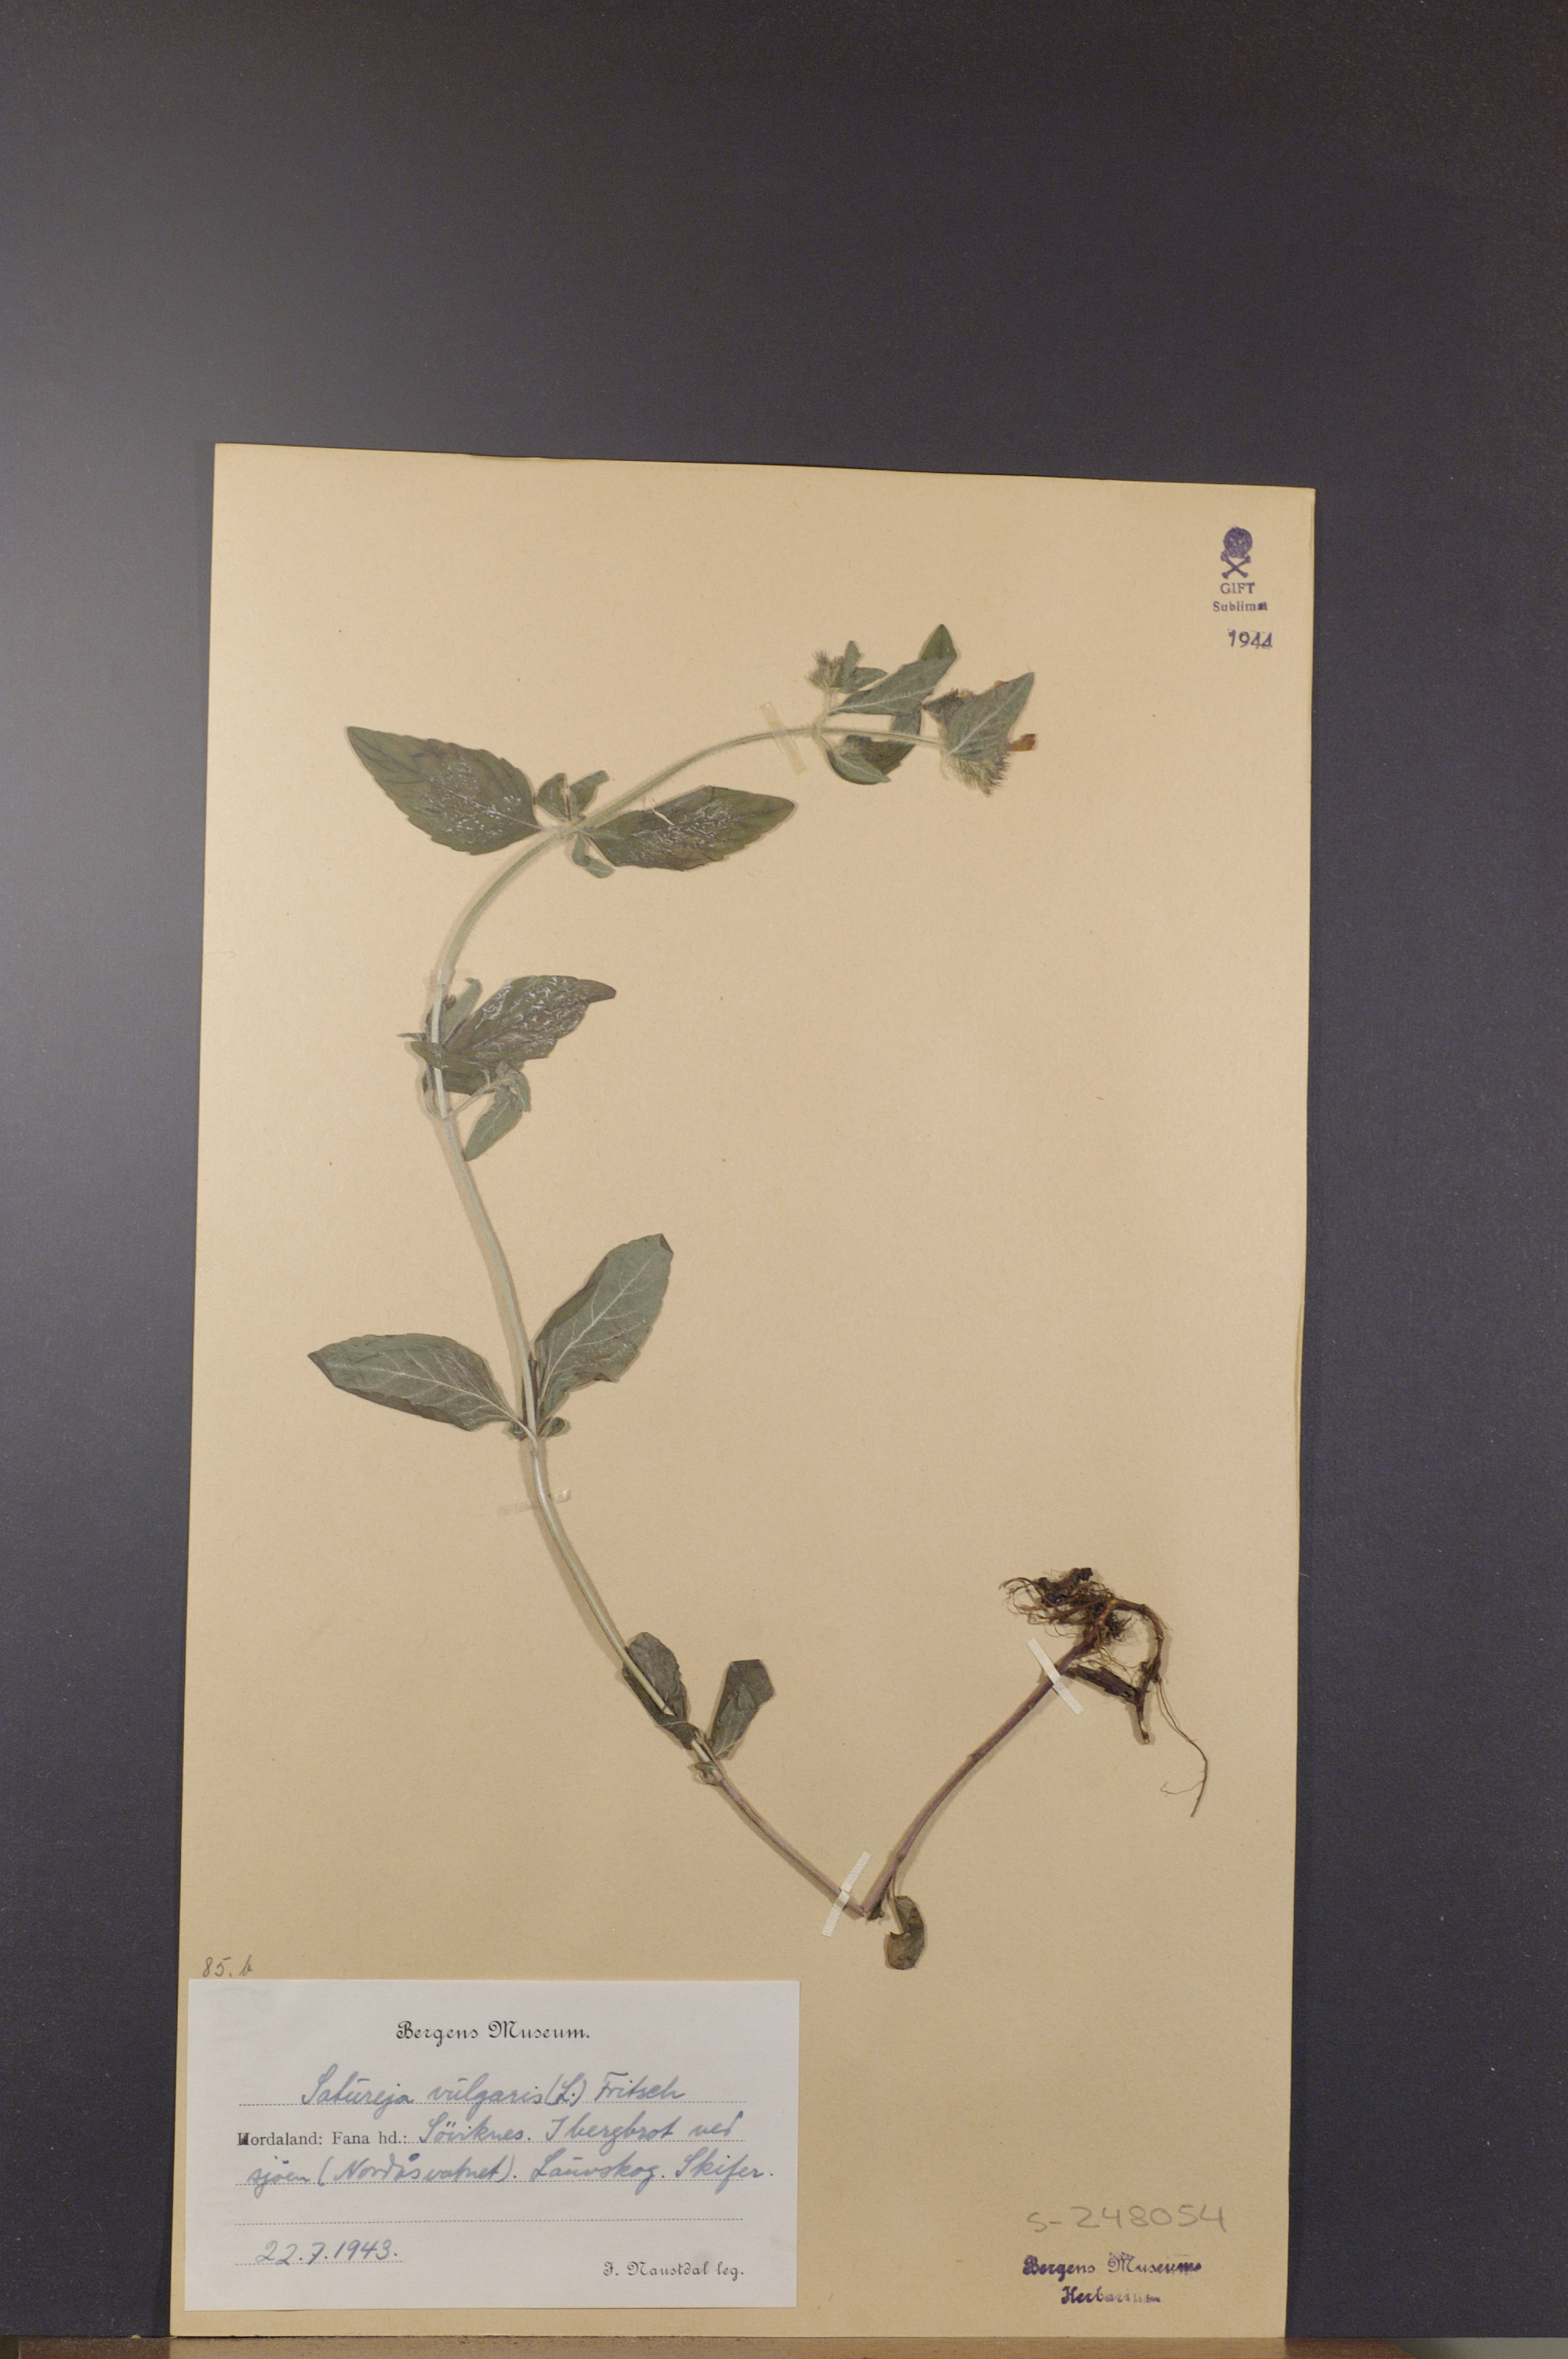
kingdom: Plantae
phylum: Tracheophyta
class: Magnoliopsida
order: Lamiales
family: Lamiaceae
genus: Clinopodium
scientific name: Clinopodium vulgare
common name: Wild basil
